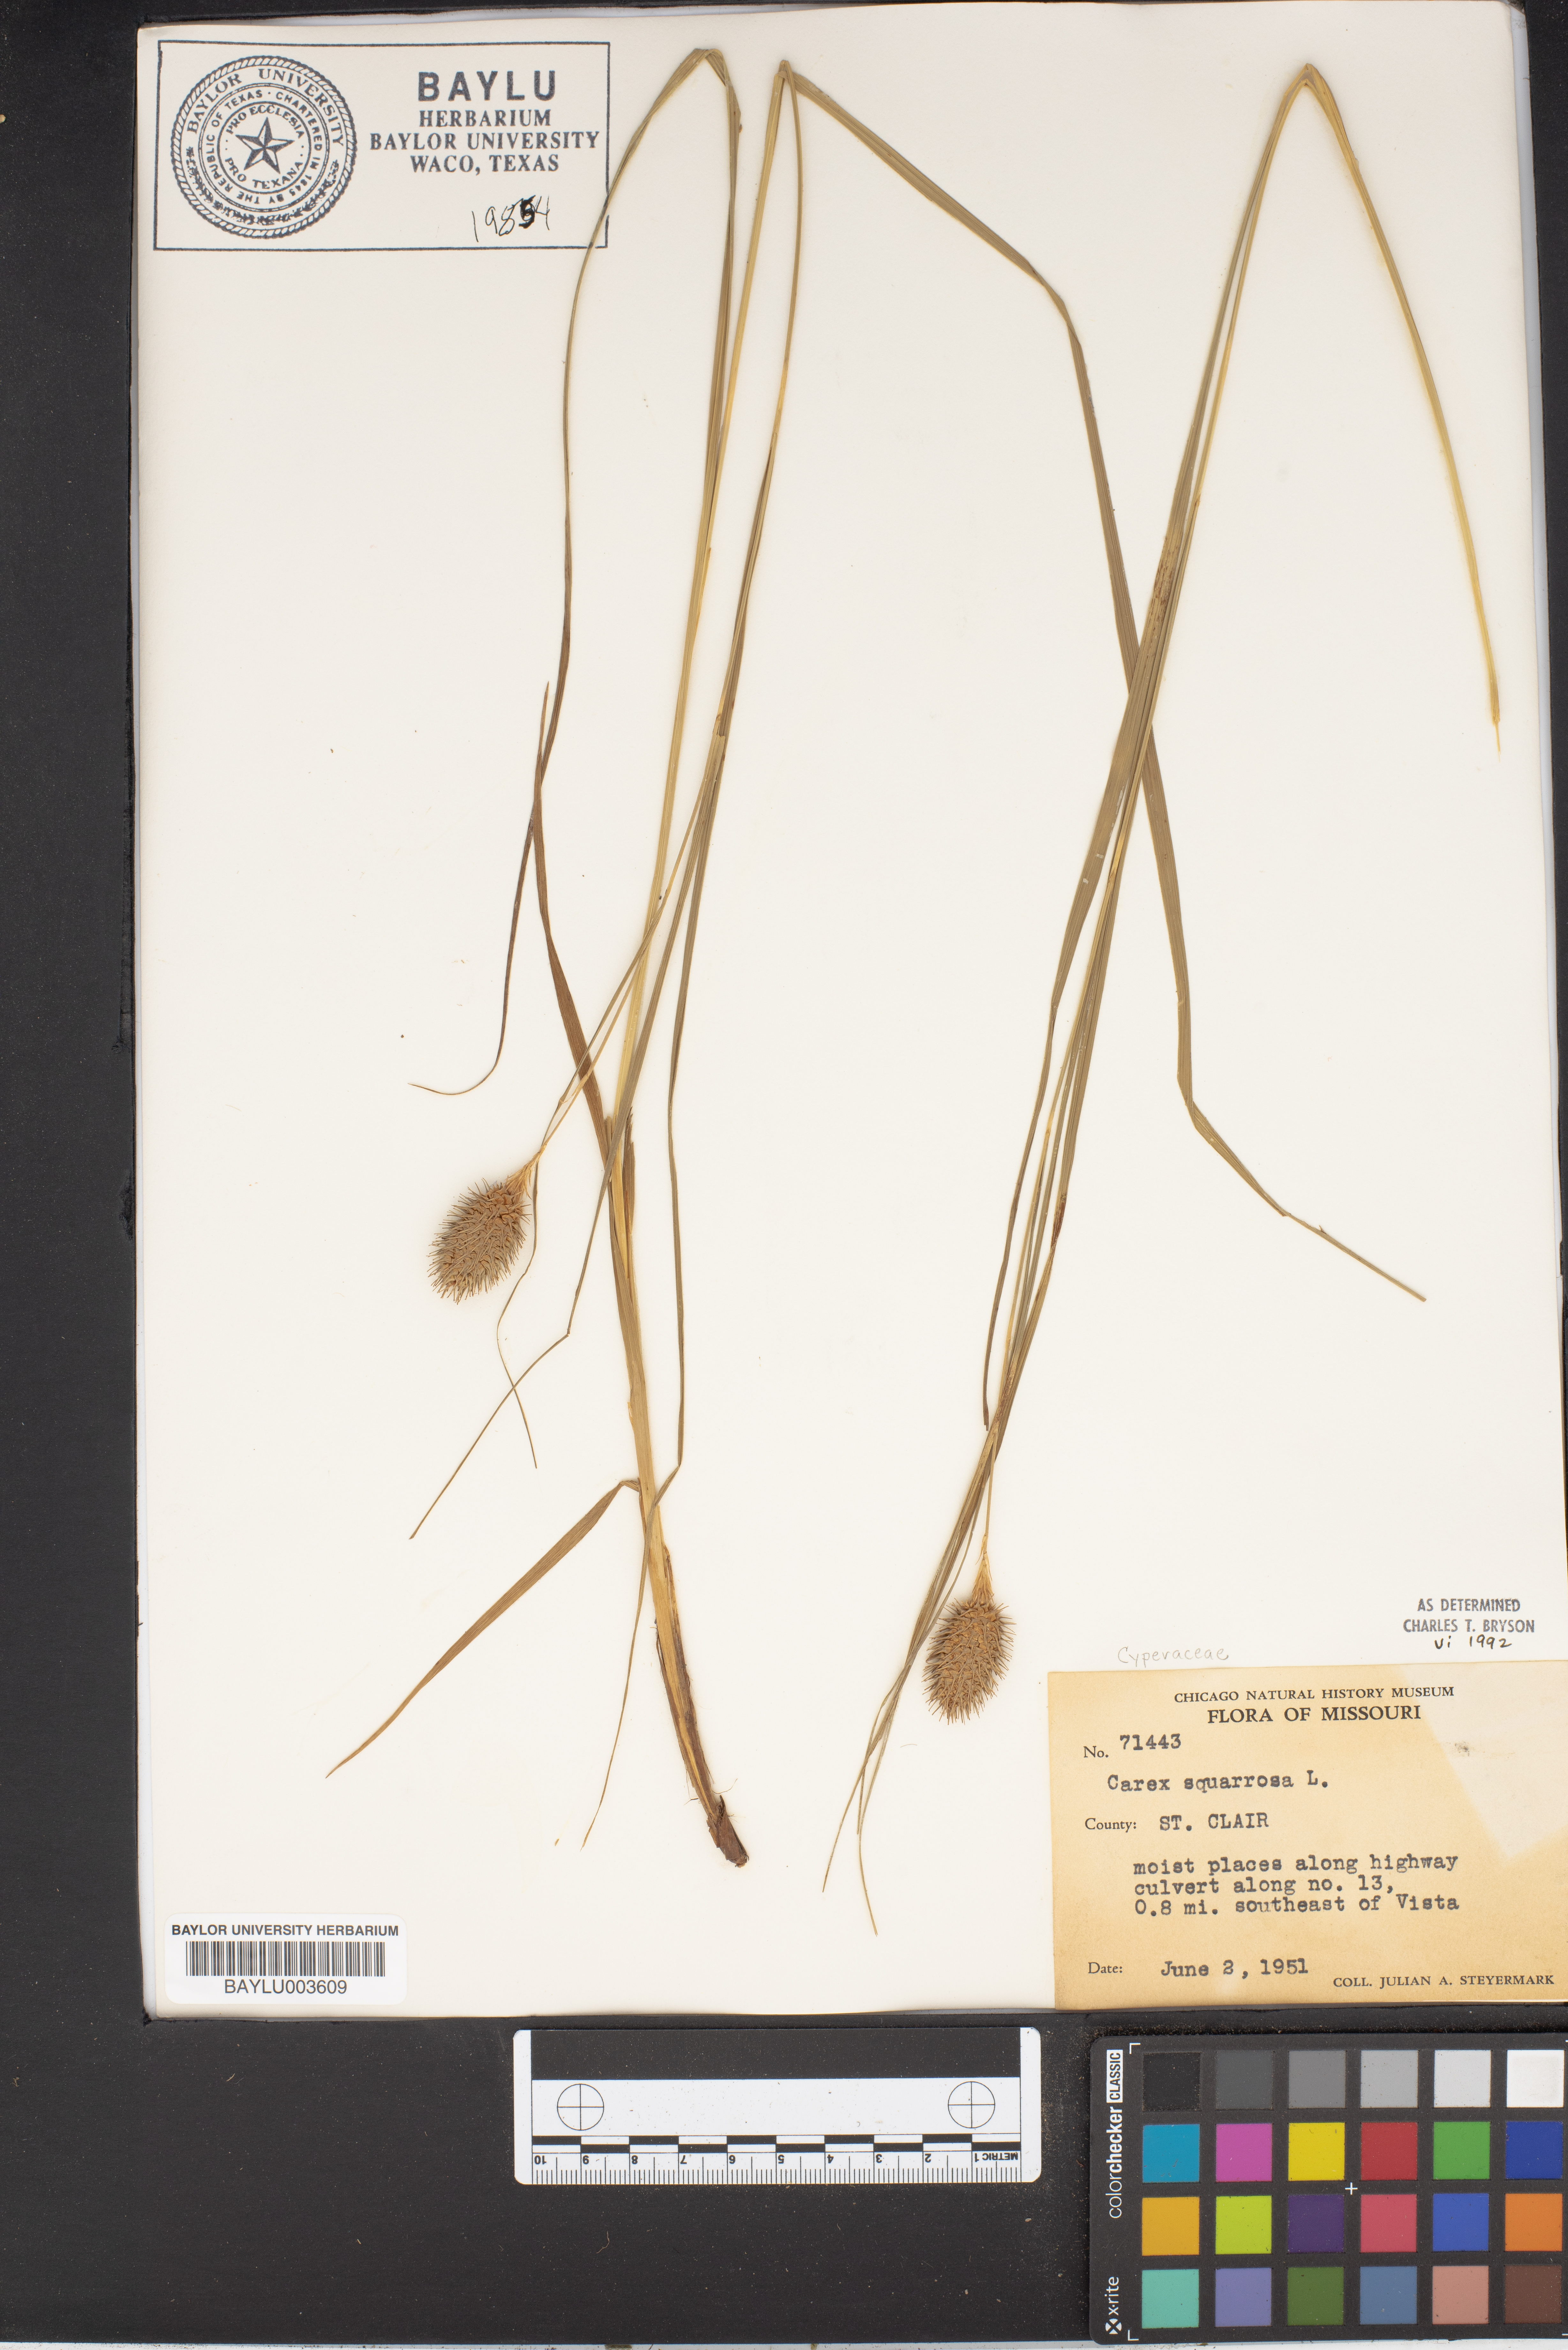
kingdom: Plantae
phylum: Tracheophyta
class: Liliopsida
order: Poales
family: Cyperaceae
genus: Carex
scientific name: Carex squarrosa
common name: Narrow-leaved cattail sedge
